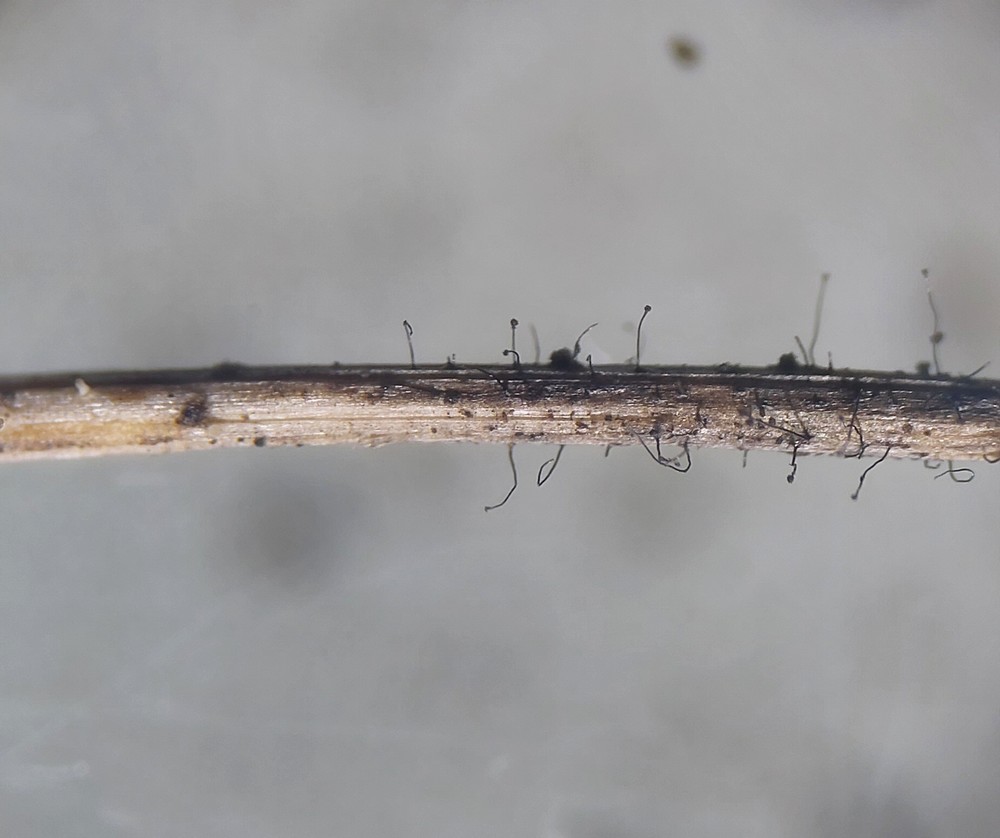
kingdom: Fungi
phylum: Ascomycota
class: Dothideomycetes
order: Pleosporales
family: Periconiaceae
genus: Periconia
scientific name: Periconia cookei
